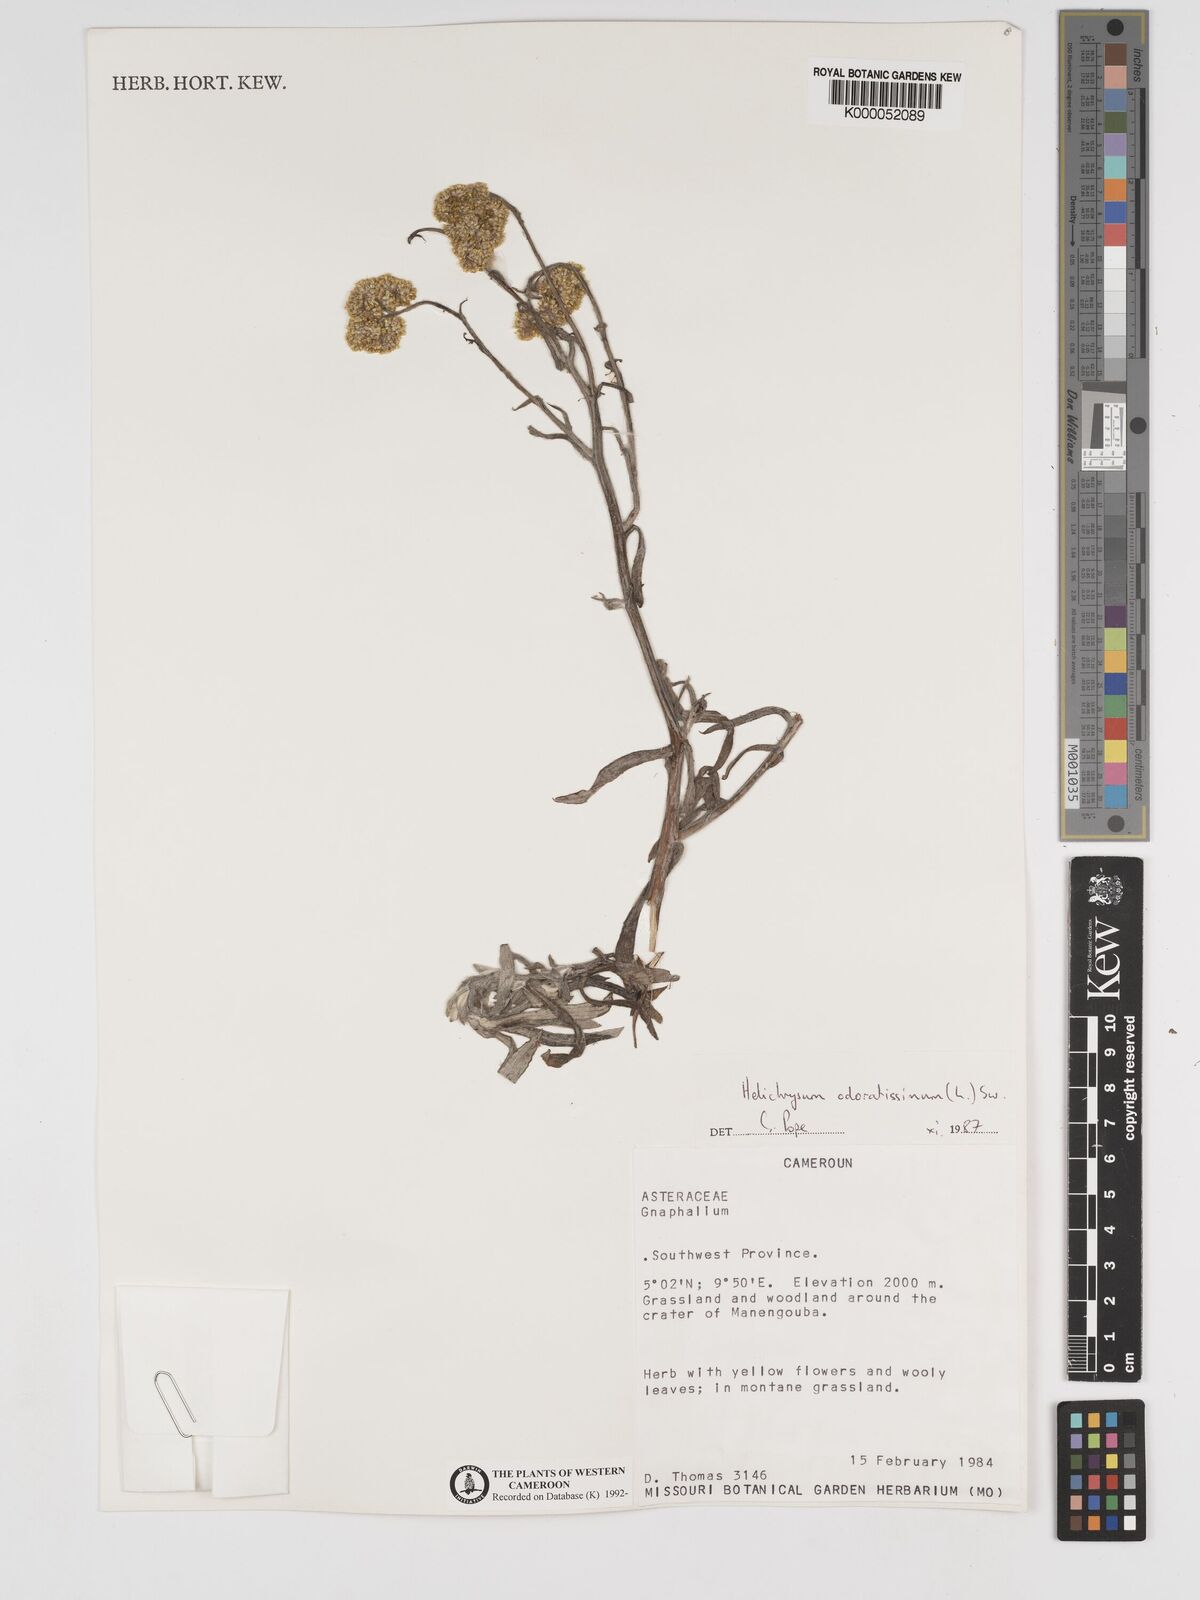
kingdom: Plantae
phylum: Tracheophyta
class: Magnoliopsida
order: Asterales
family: Asteraceae
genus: Helichrysum
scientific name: Helichrysum odoratissimum
